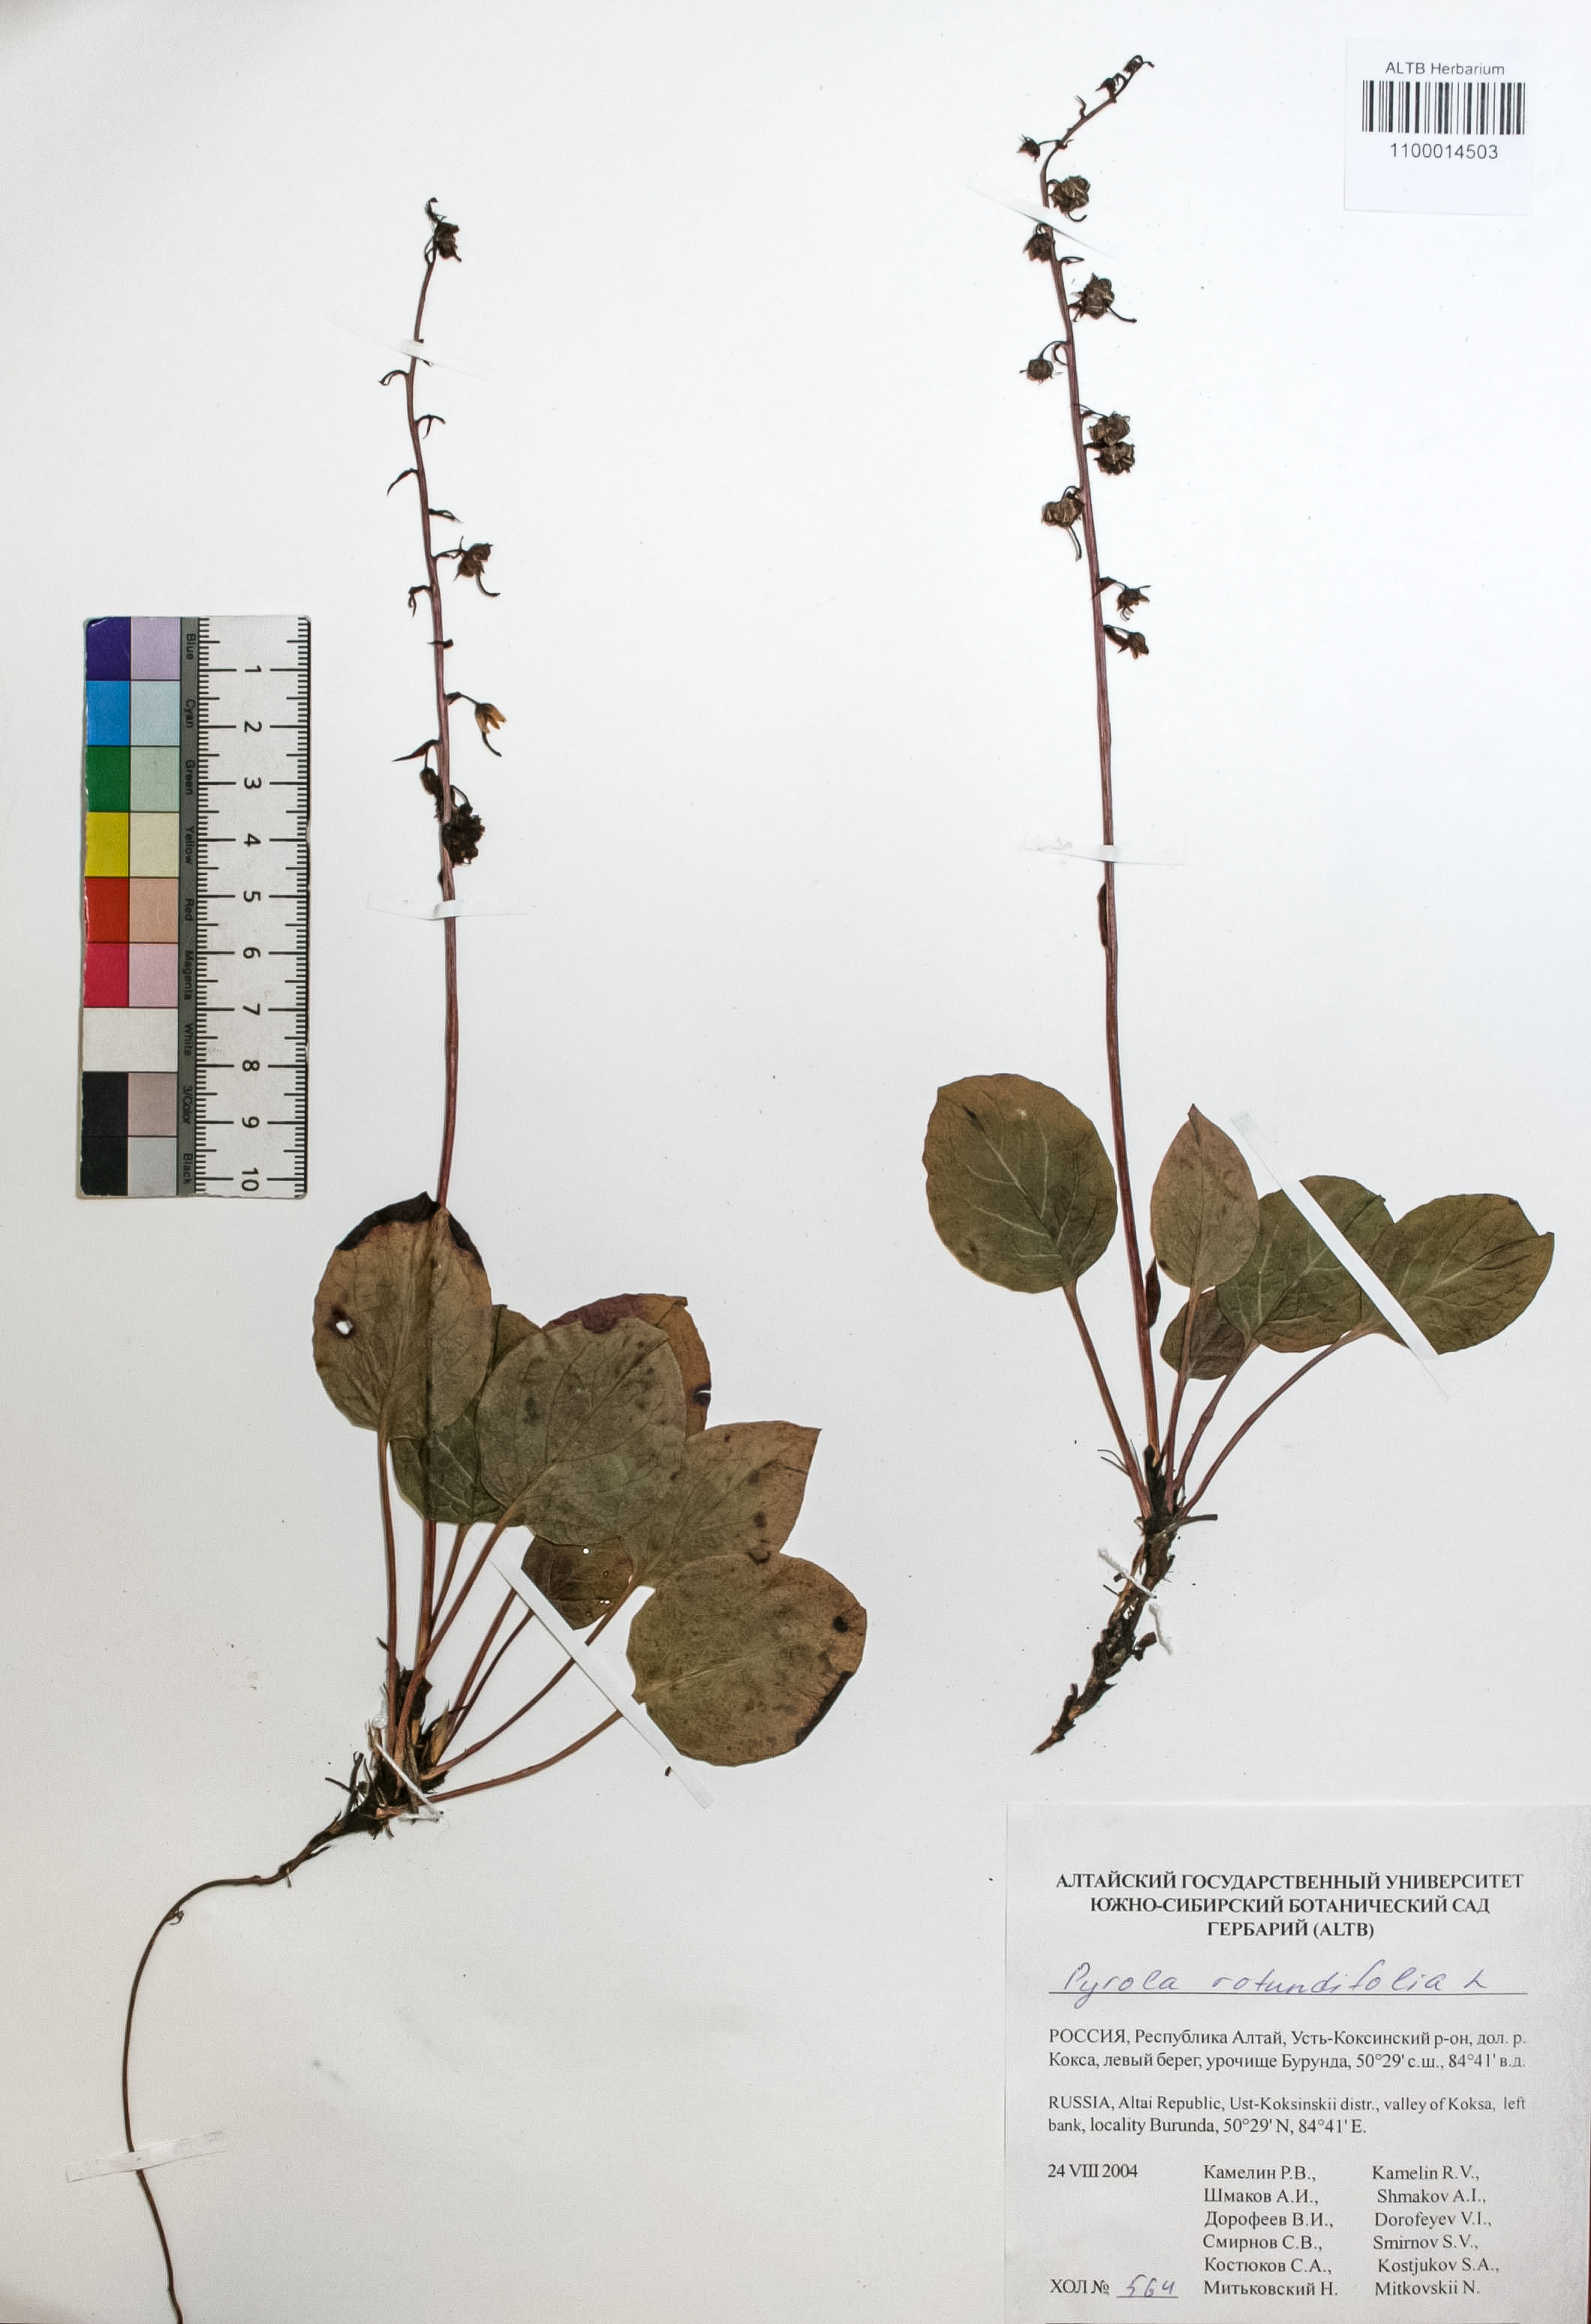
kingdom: Plantae
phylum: Tracheophyta
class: Magnoliopsida
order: Ericales
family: Ericaceae
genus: Pyrola
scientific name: Pyrola rotundifolia
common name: Round-leaved wintergreen
